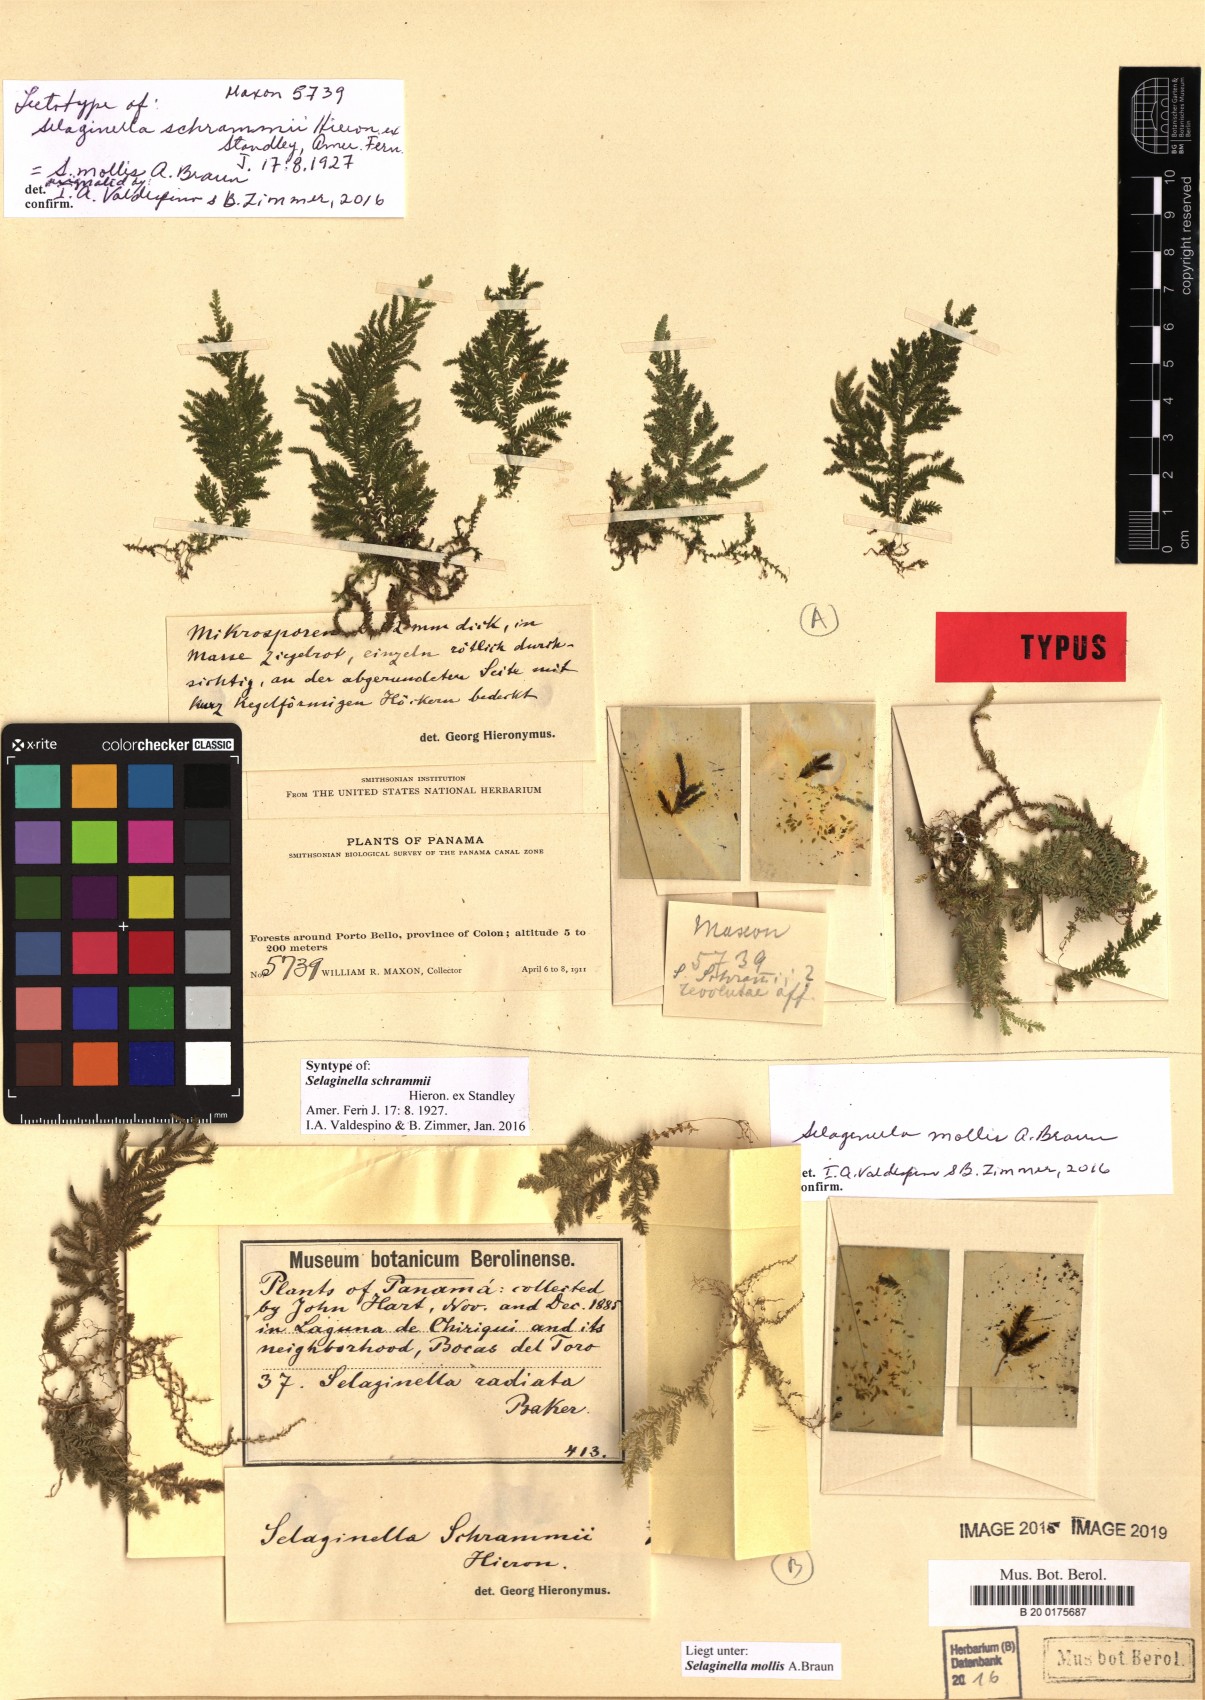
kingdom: Plantae
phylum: Tracheophyta
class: Lycopodiopsida
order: Selaginellales
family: Selaginellaceae
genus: Selaginella
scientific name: Selaginella mollis
